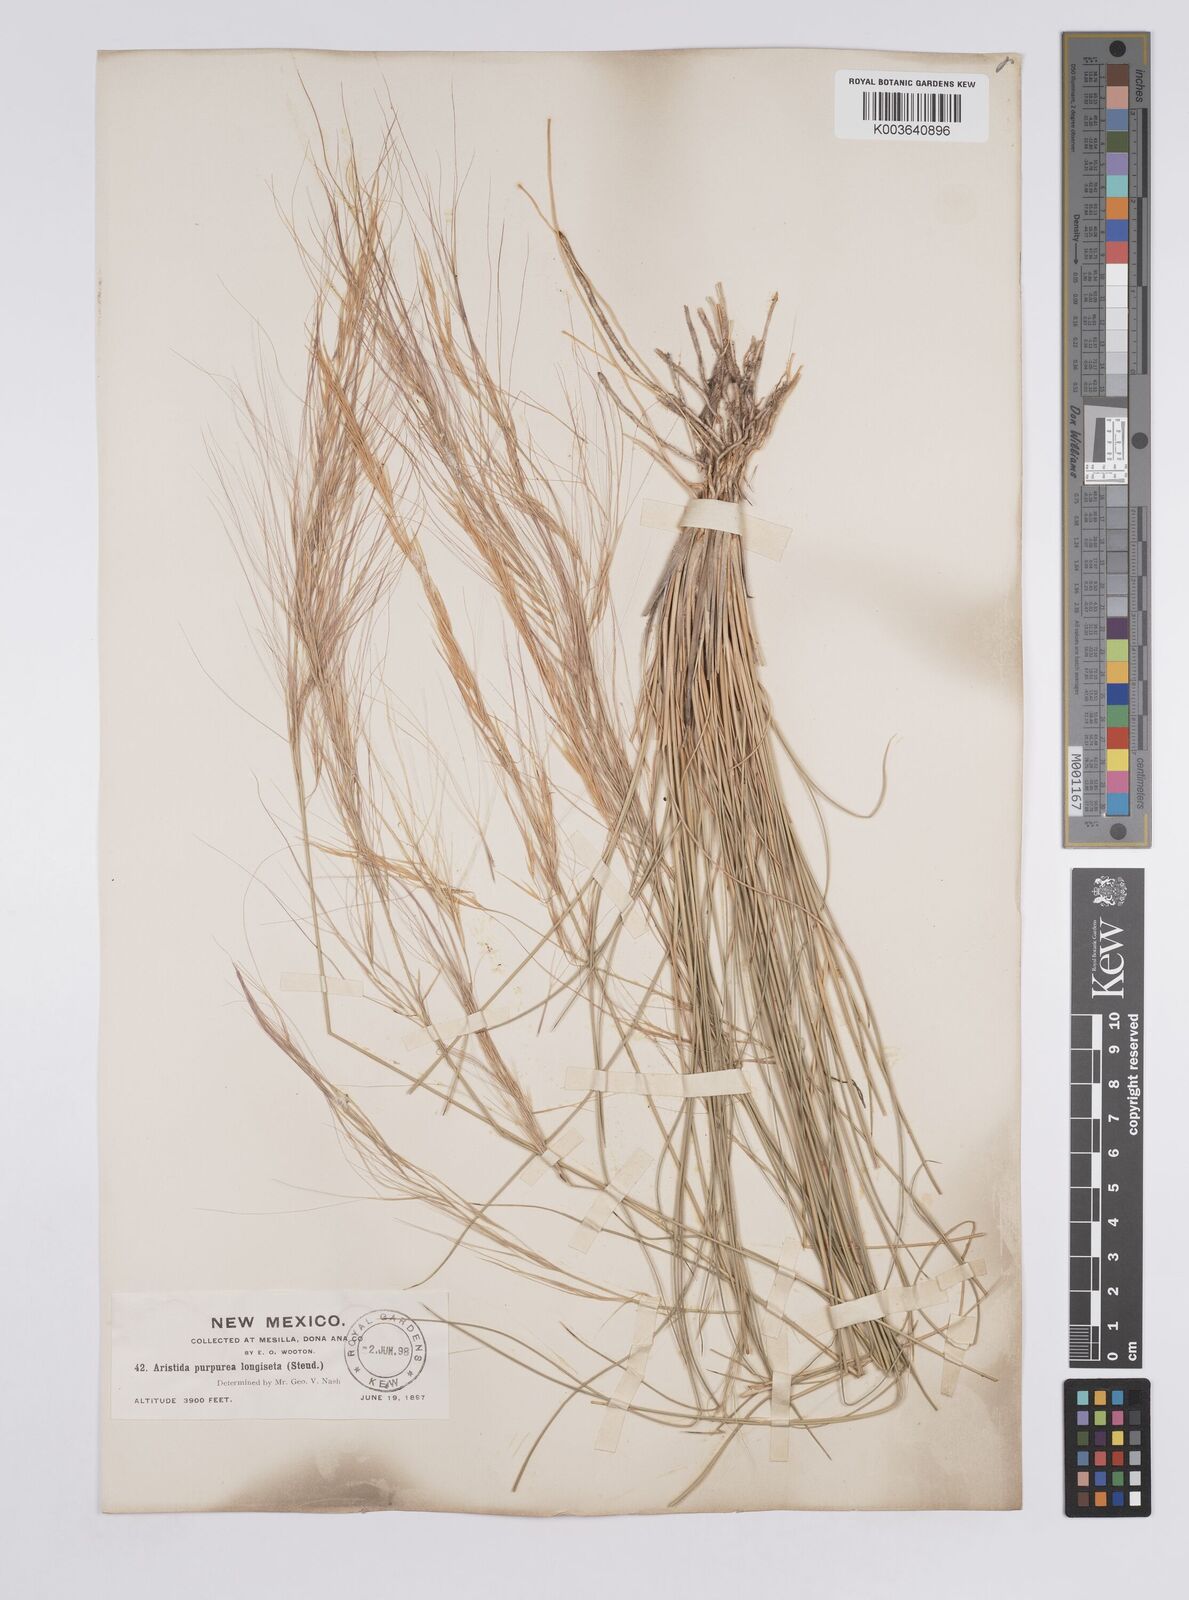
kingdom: Plantae
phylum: Tracheophyta
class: Liliopsida
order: Poales
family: Poaceae
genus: Aristida
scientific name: Aristida purpurea
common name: Purple threeawn
